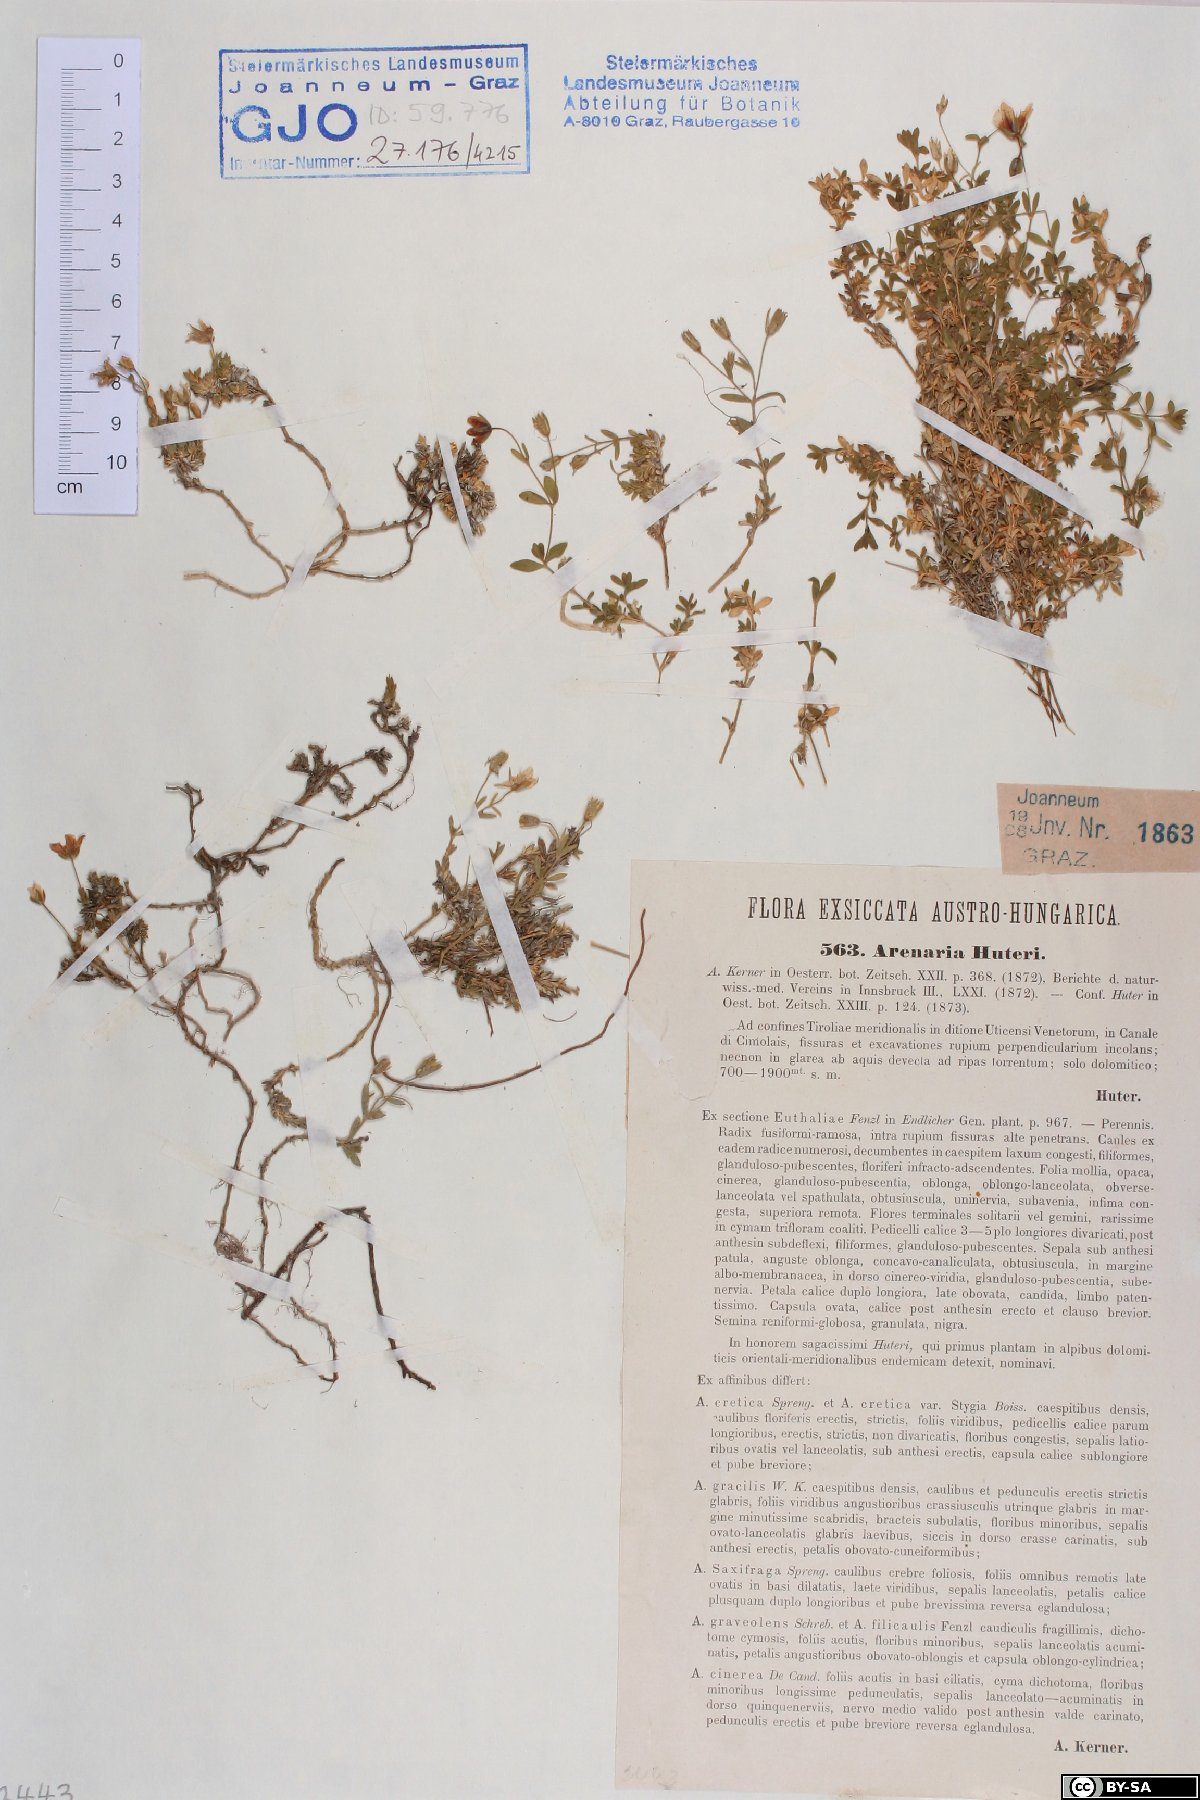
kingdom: Plantae
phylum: Tracheophyta
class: Magnoliopsida
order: Caryophyllales
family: Caryophyllaceae
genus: Arenaria
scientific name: Arenaria huteri
